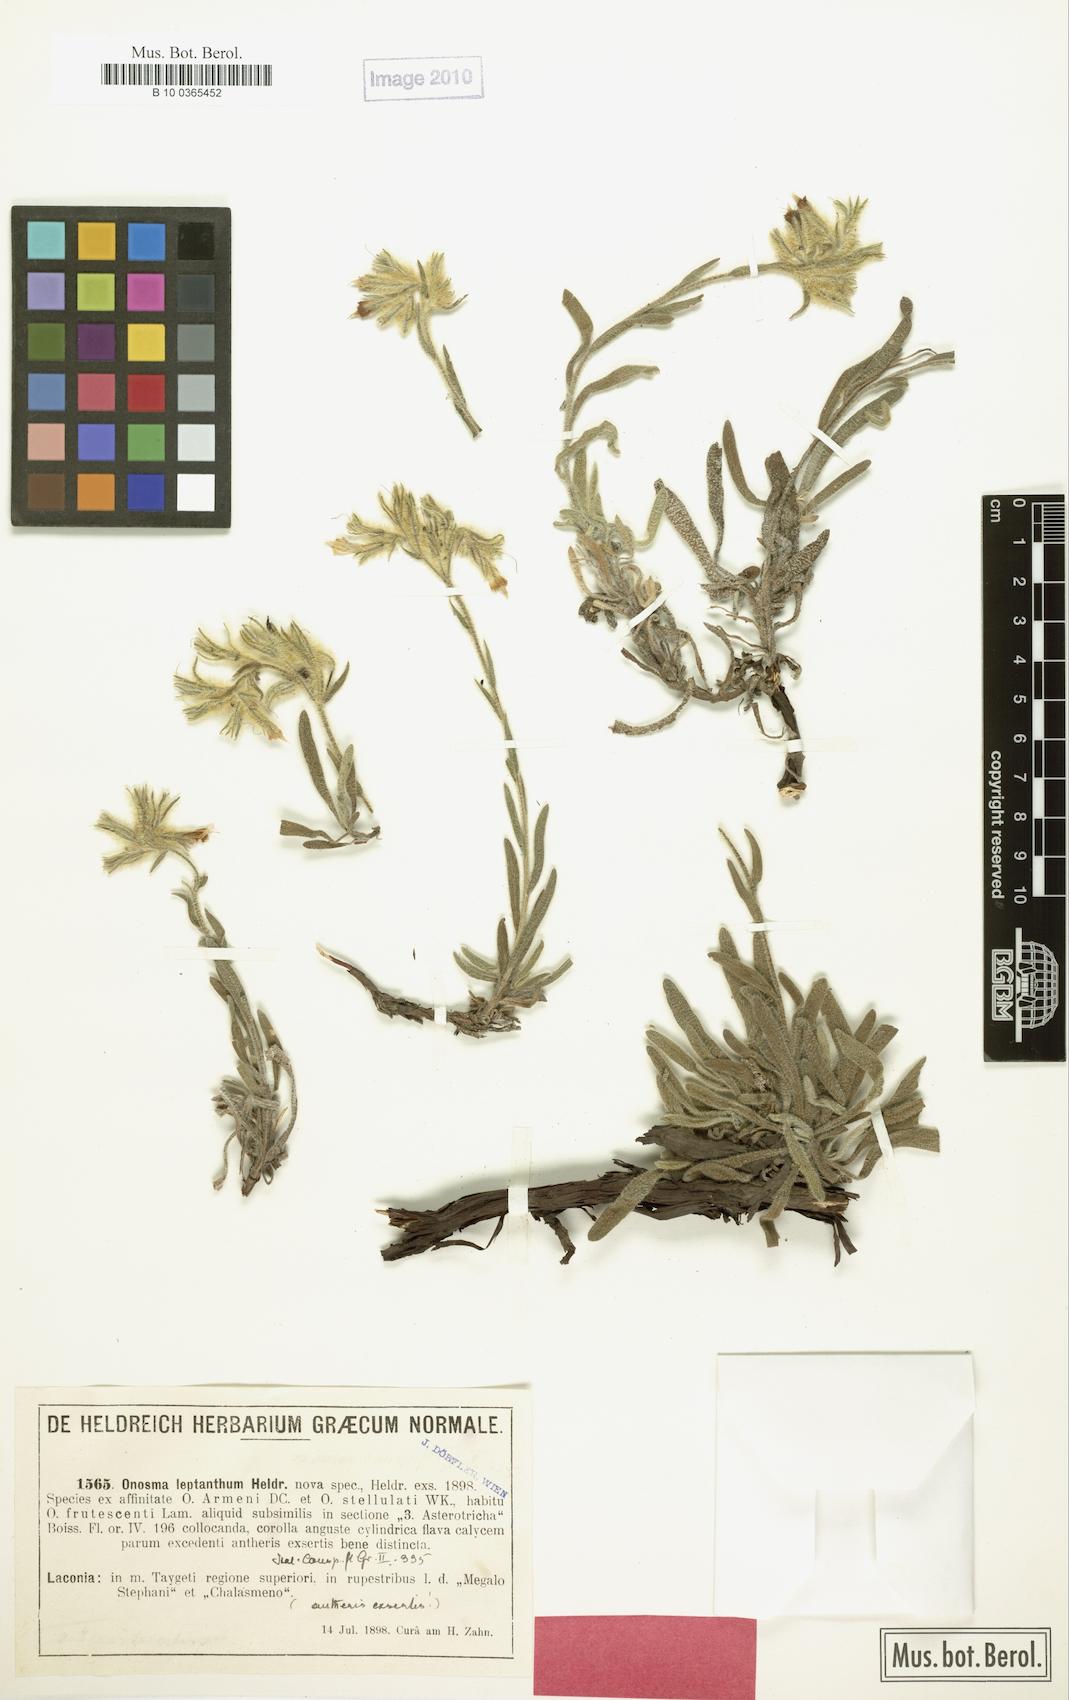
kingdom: Plantae
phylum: Tracheophyta
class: Magnoliopsida
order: Boraginales
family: Boraginaceae
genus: Onosma
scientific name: Onosma leptantha
